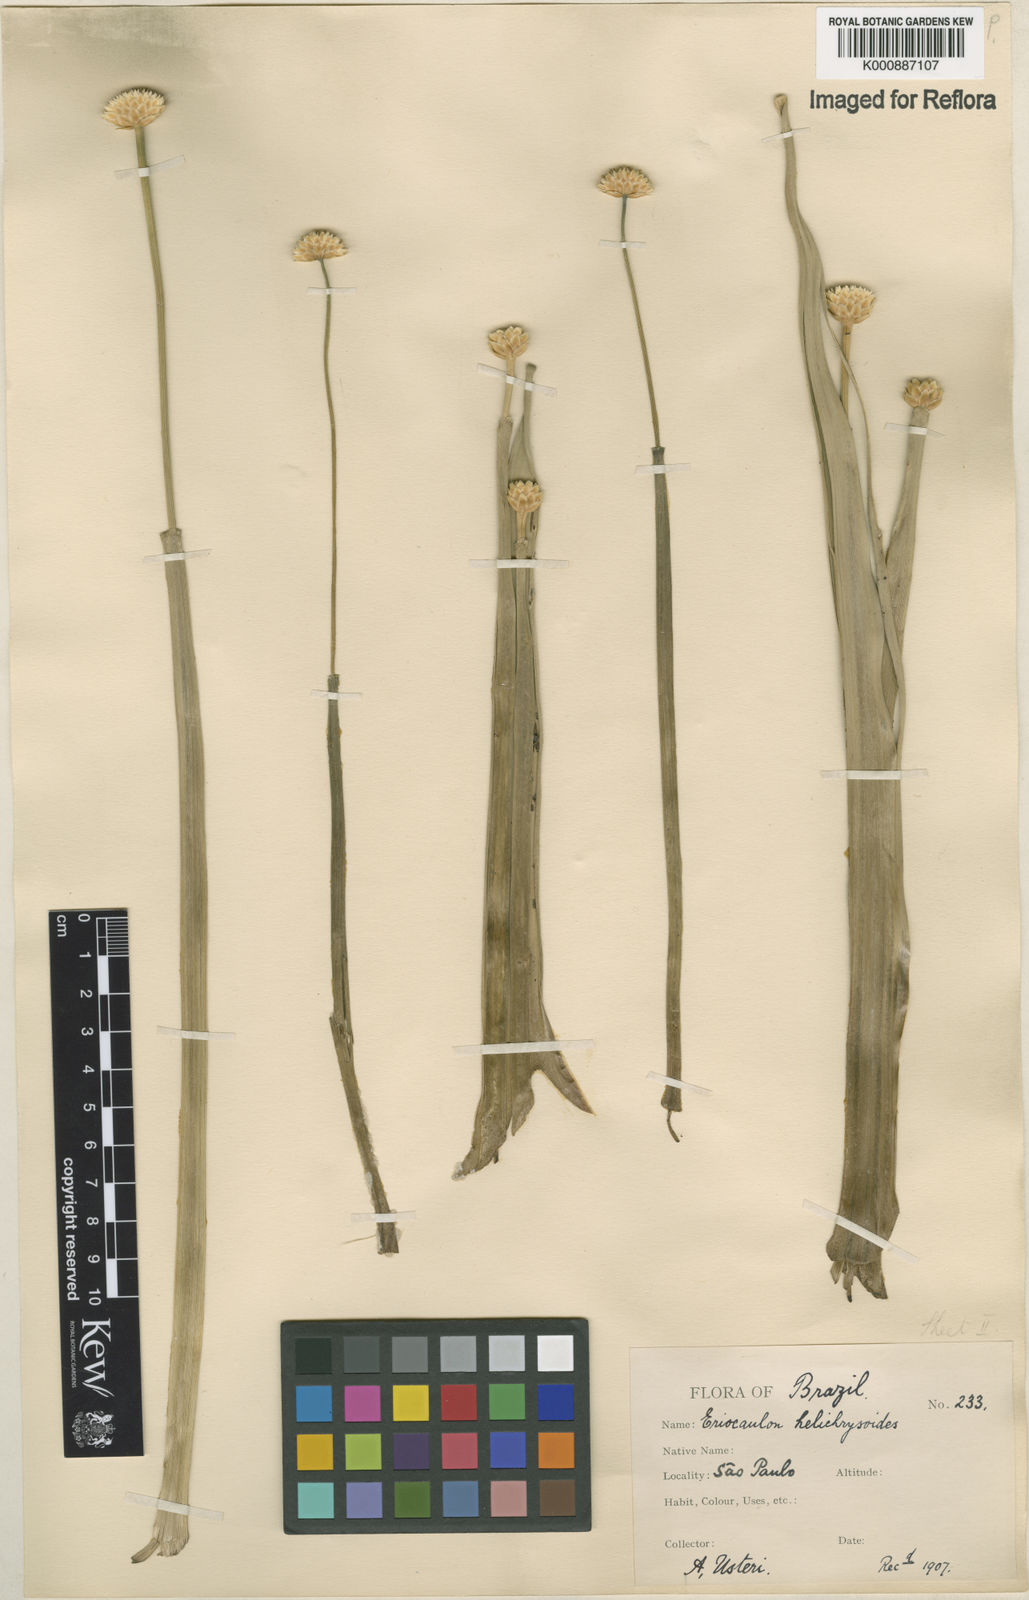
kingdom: Plantae
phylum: Tracheophyta
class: Liliopsida
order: Poales
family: Eriocaulaceae
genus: Paepalanthus
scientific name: Paepalanthus elongatus
